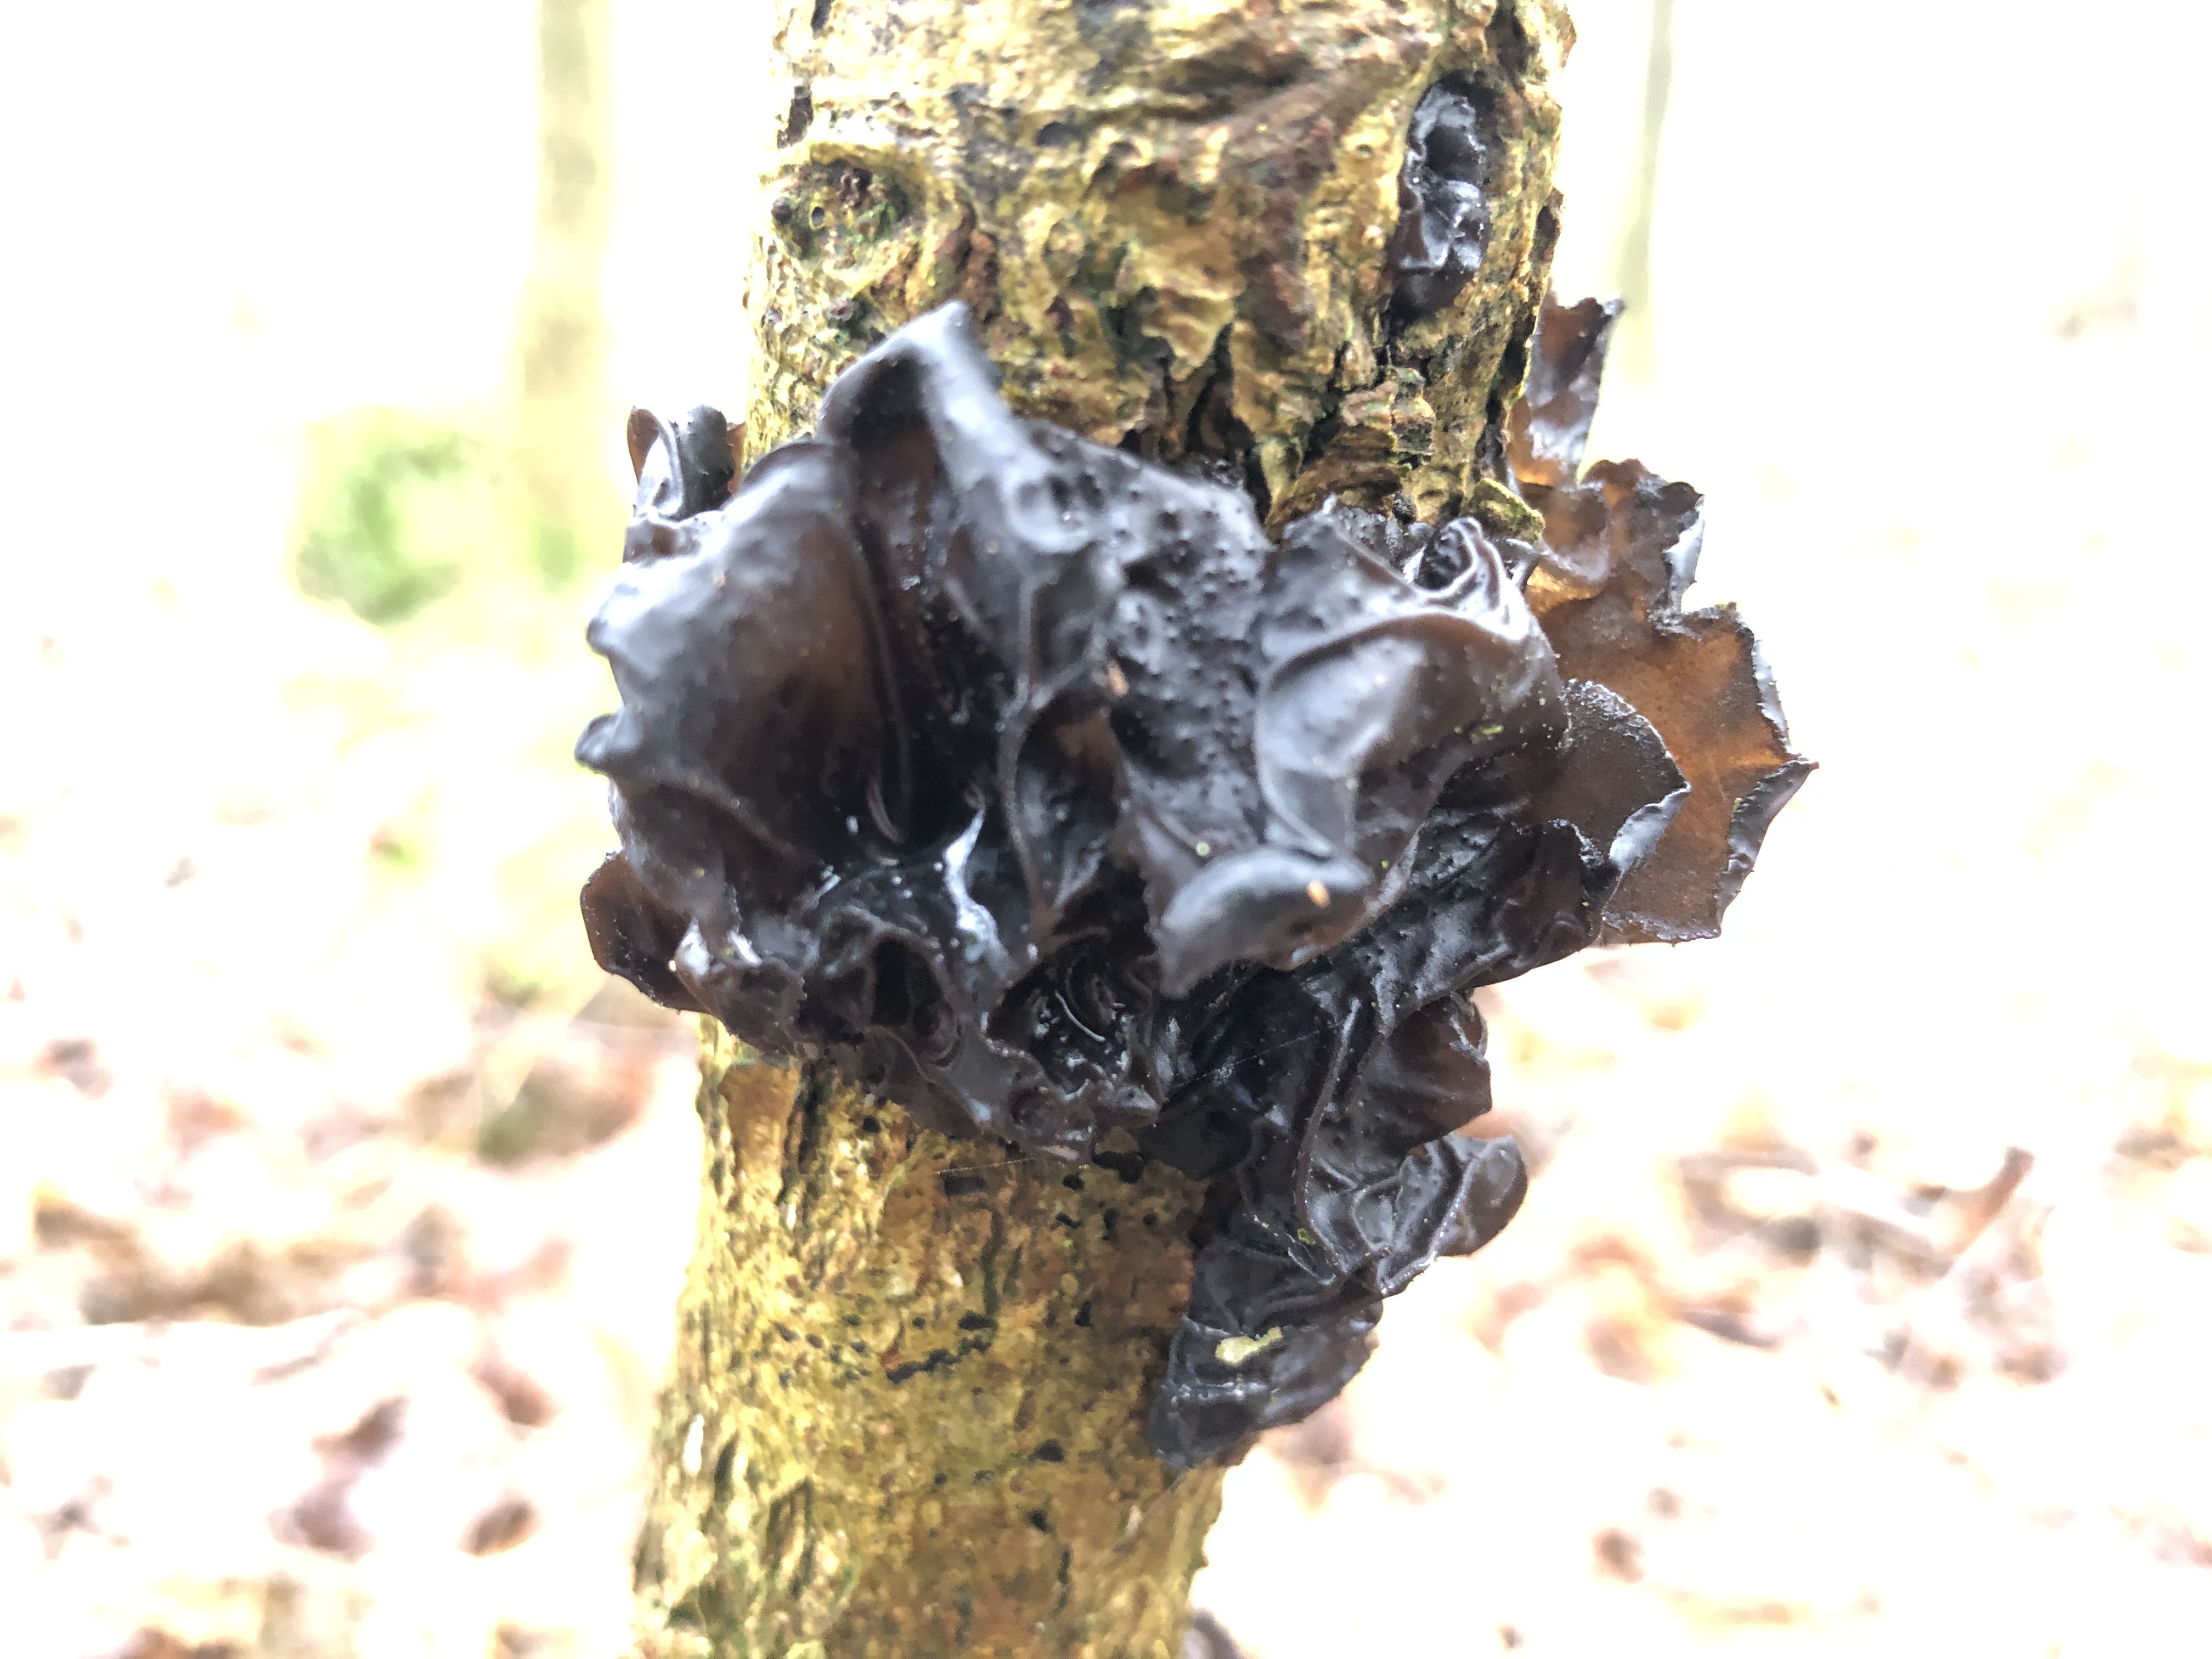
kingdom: Fungi
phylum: Basidiomycota
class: Agaricomycetes
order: Auriculariales
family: Auriculariaceae
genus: Exidia
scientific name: Exidia glandulosa
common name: ege-bævretop
